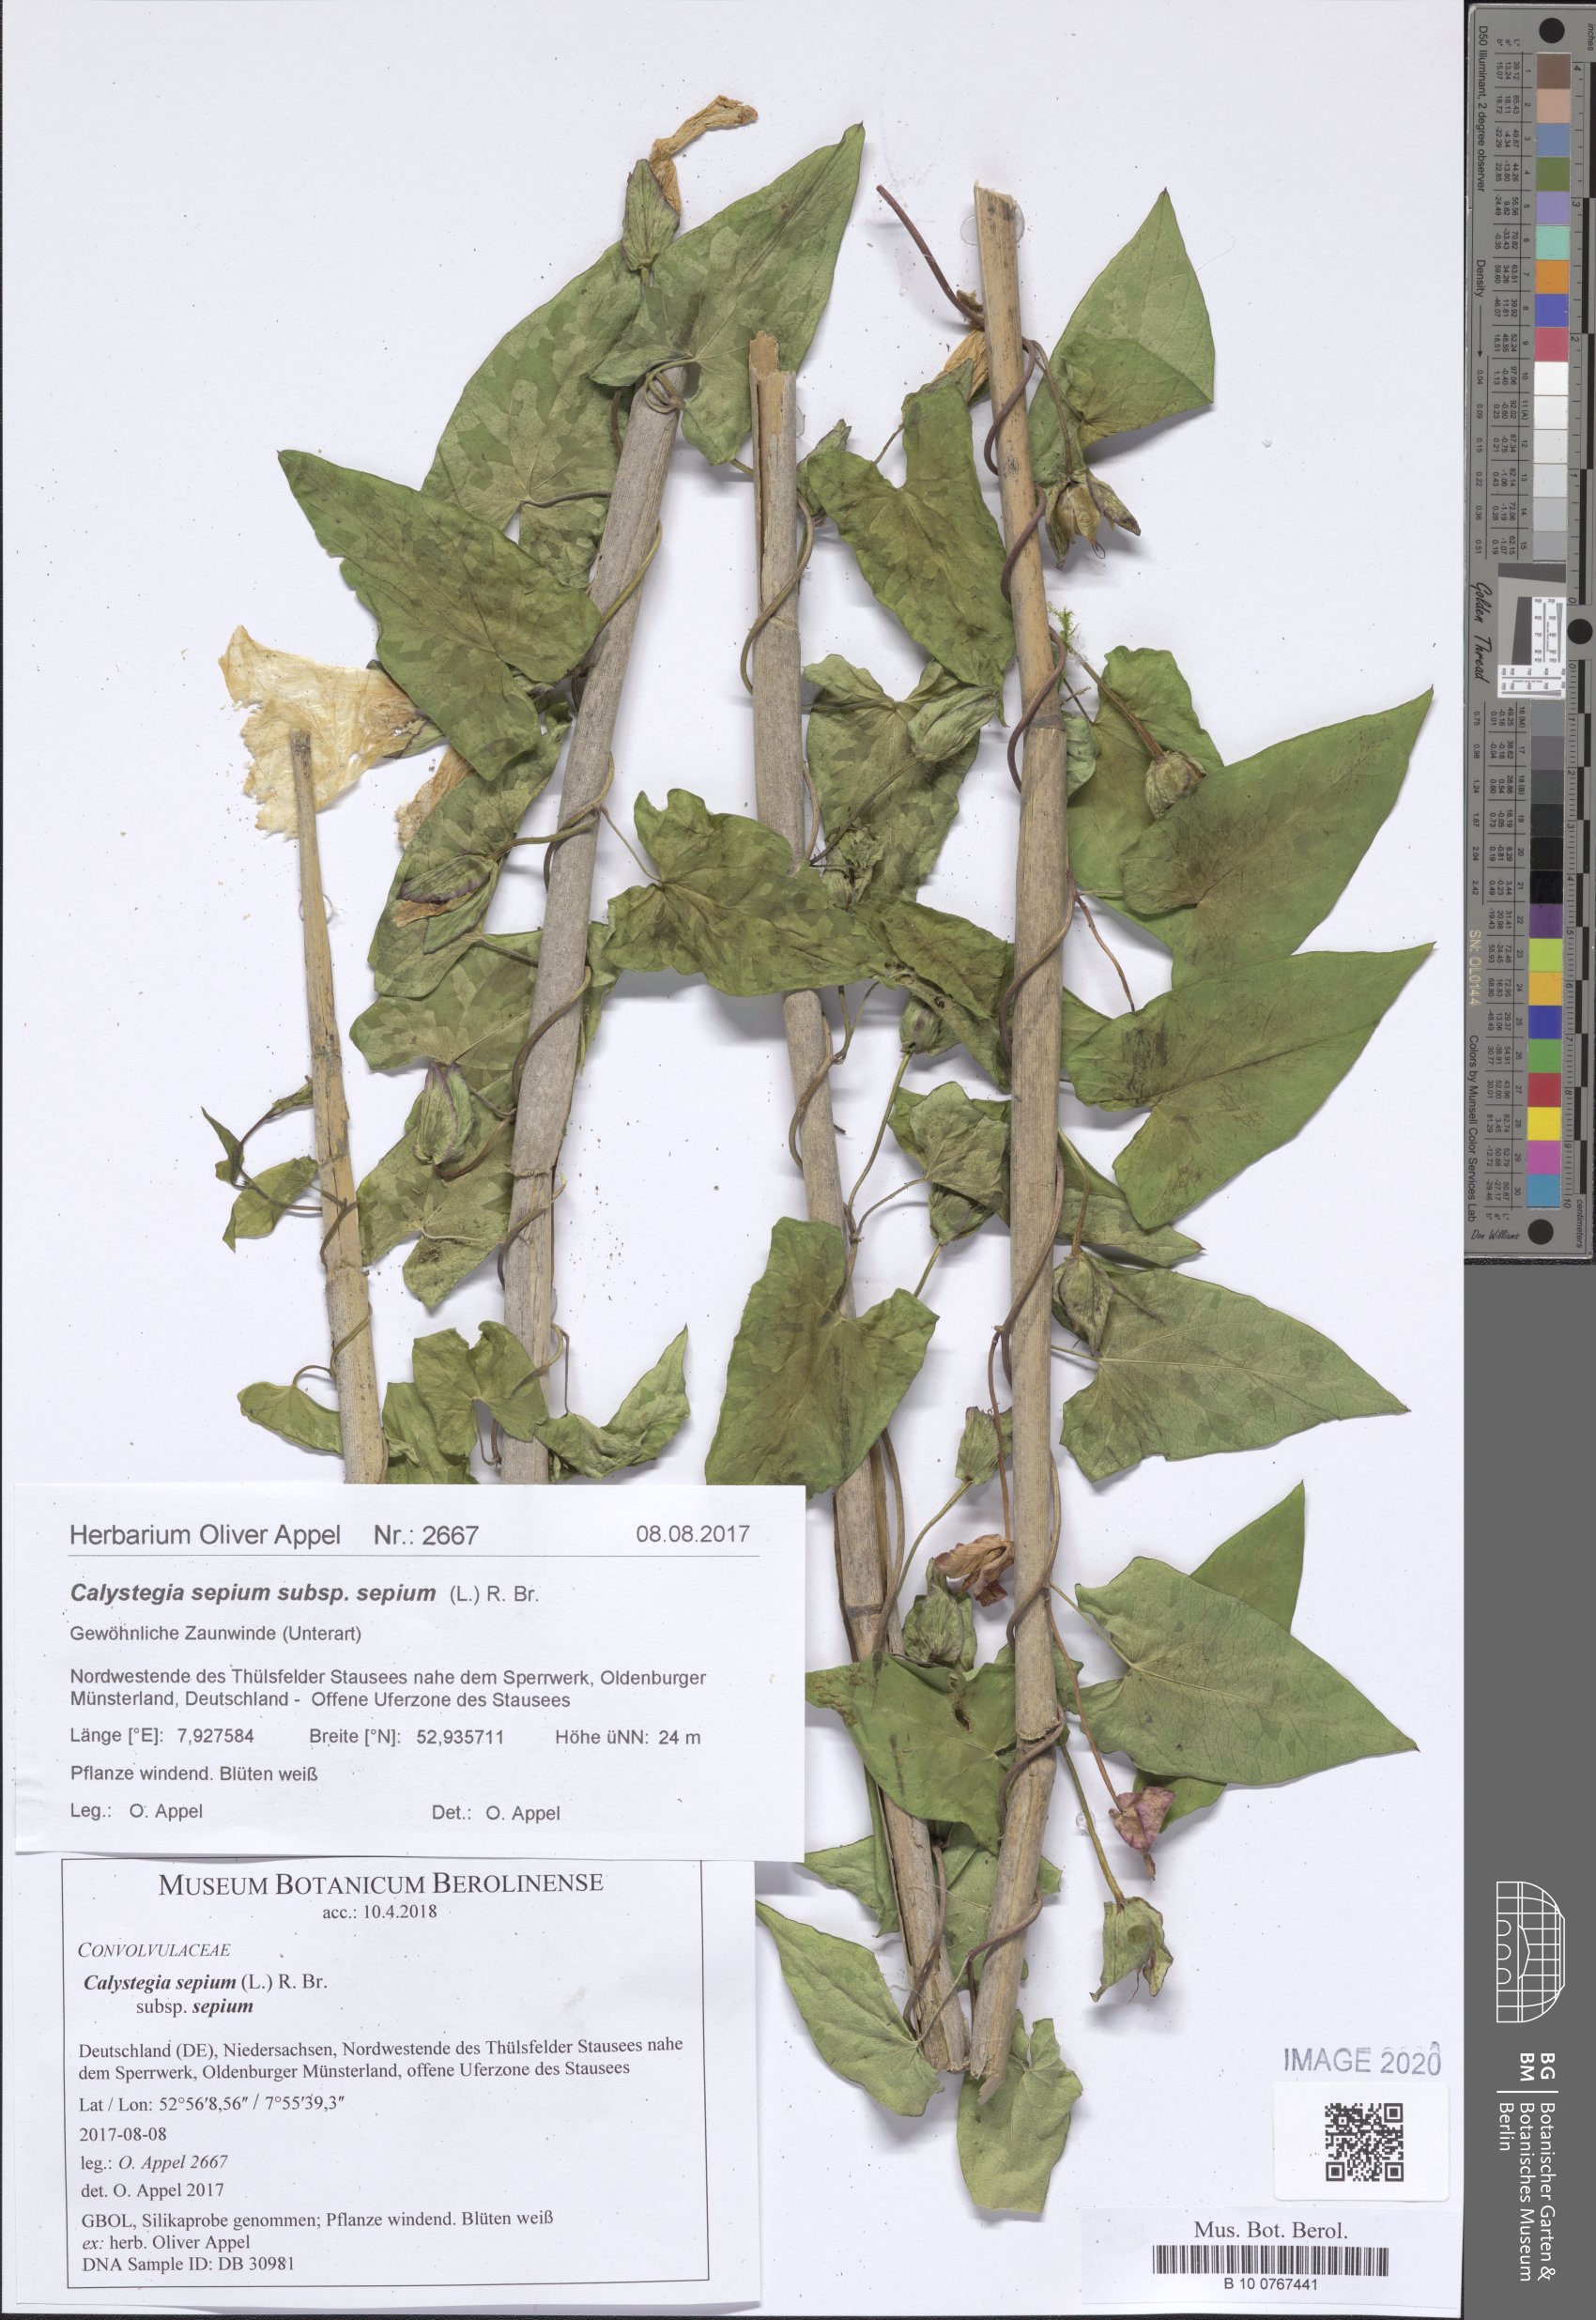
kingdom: Plantae
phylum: Tracheophyta
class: Magnoliopsida
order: Solanales
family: Convolvulaceae
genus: Calystegia
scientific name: Calystegia sepium
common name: Hedge bindweed
